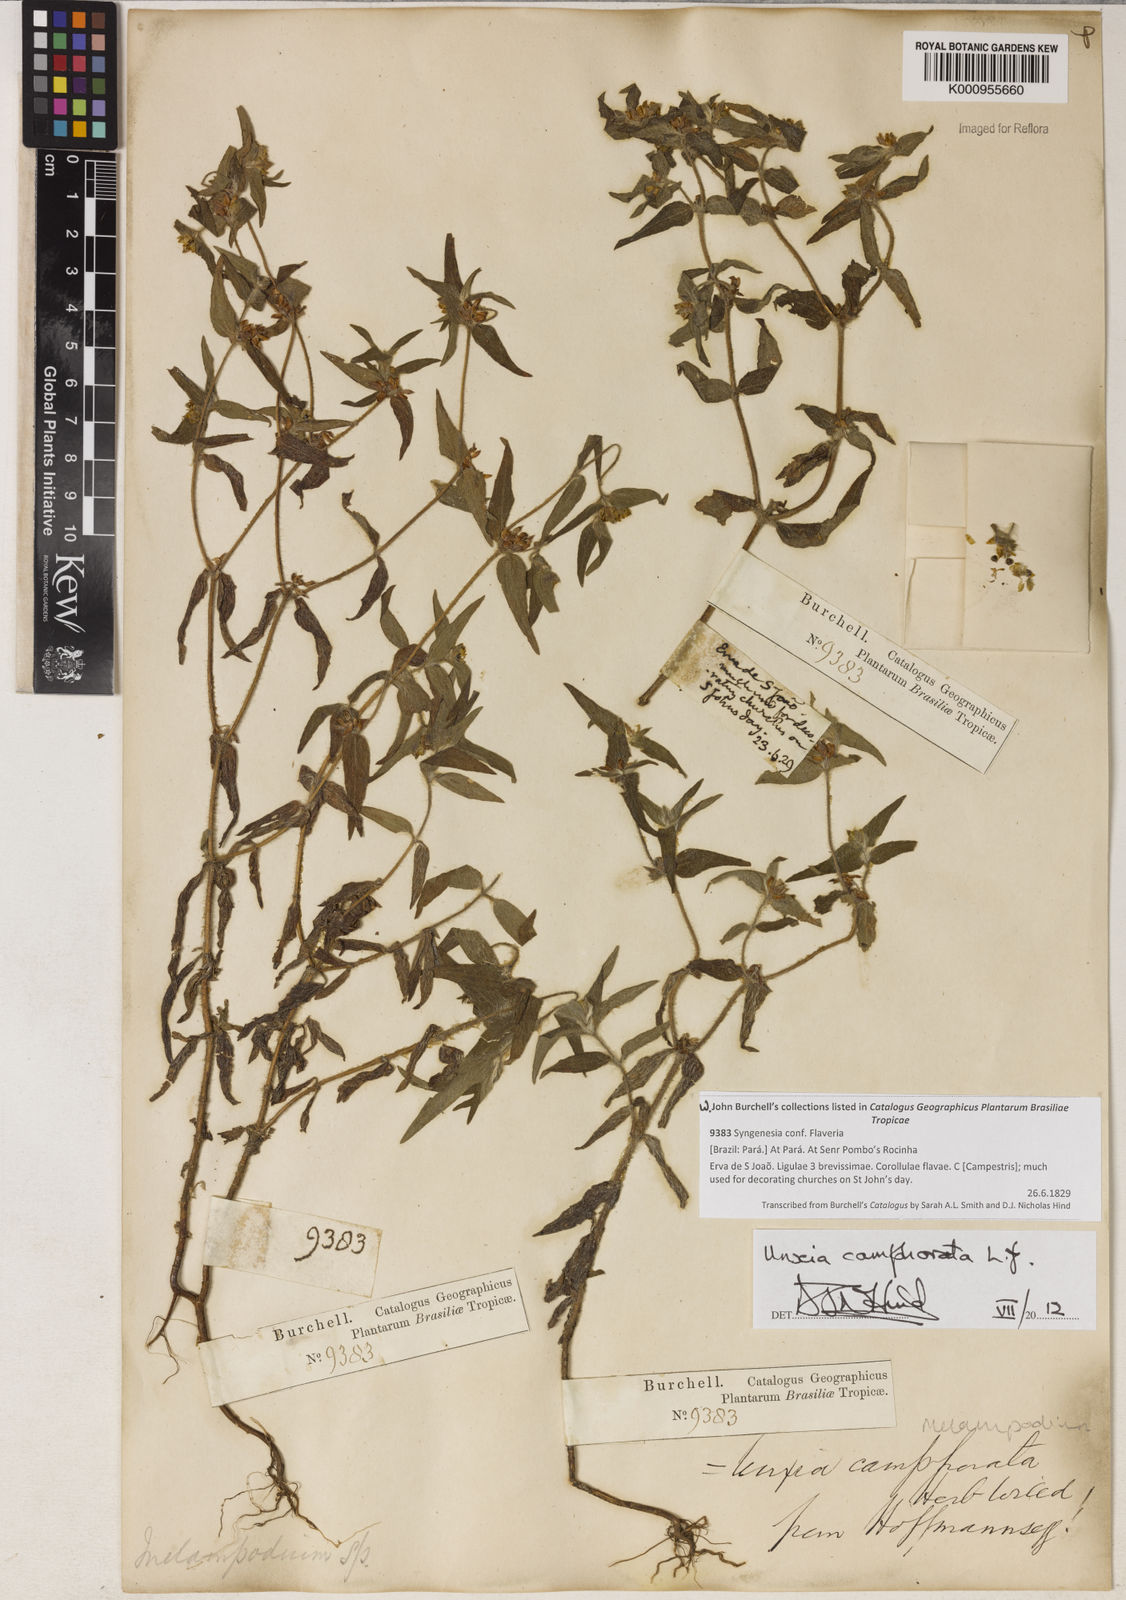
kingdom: Plantae
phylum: Tracheophyta
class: Magnoliopsida
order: Asterales
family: Asteraceae
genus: Unxia
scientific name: Unxia camphorata
